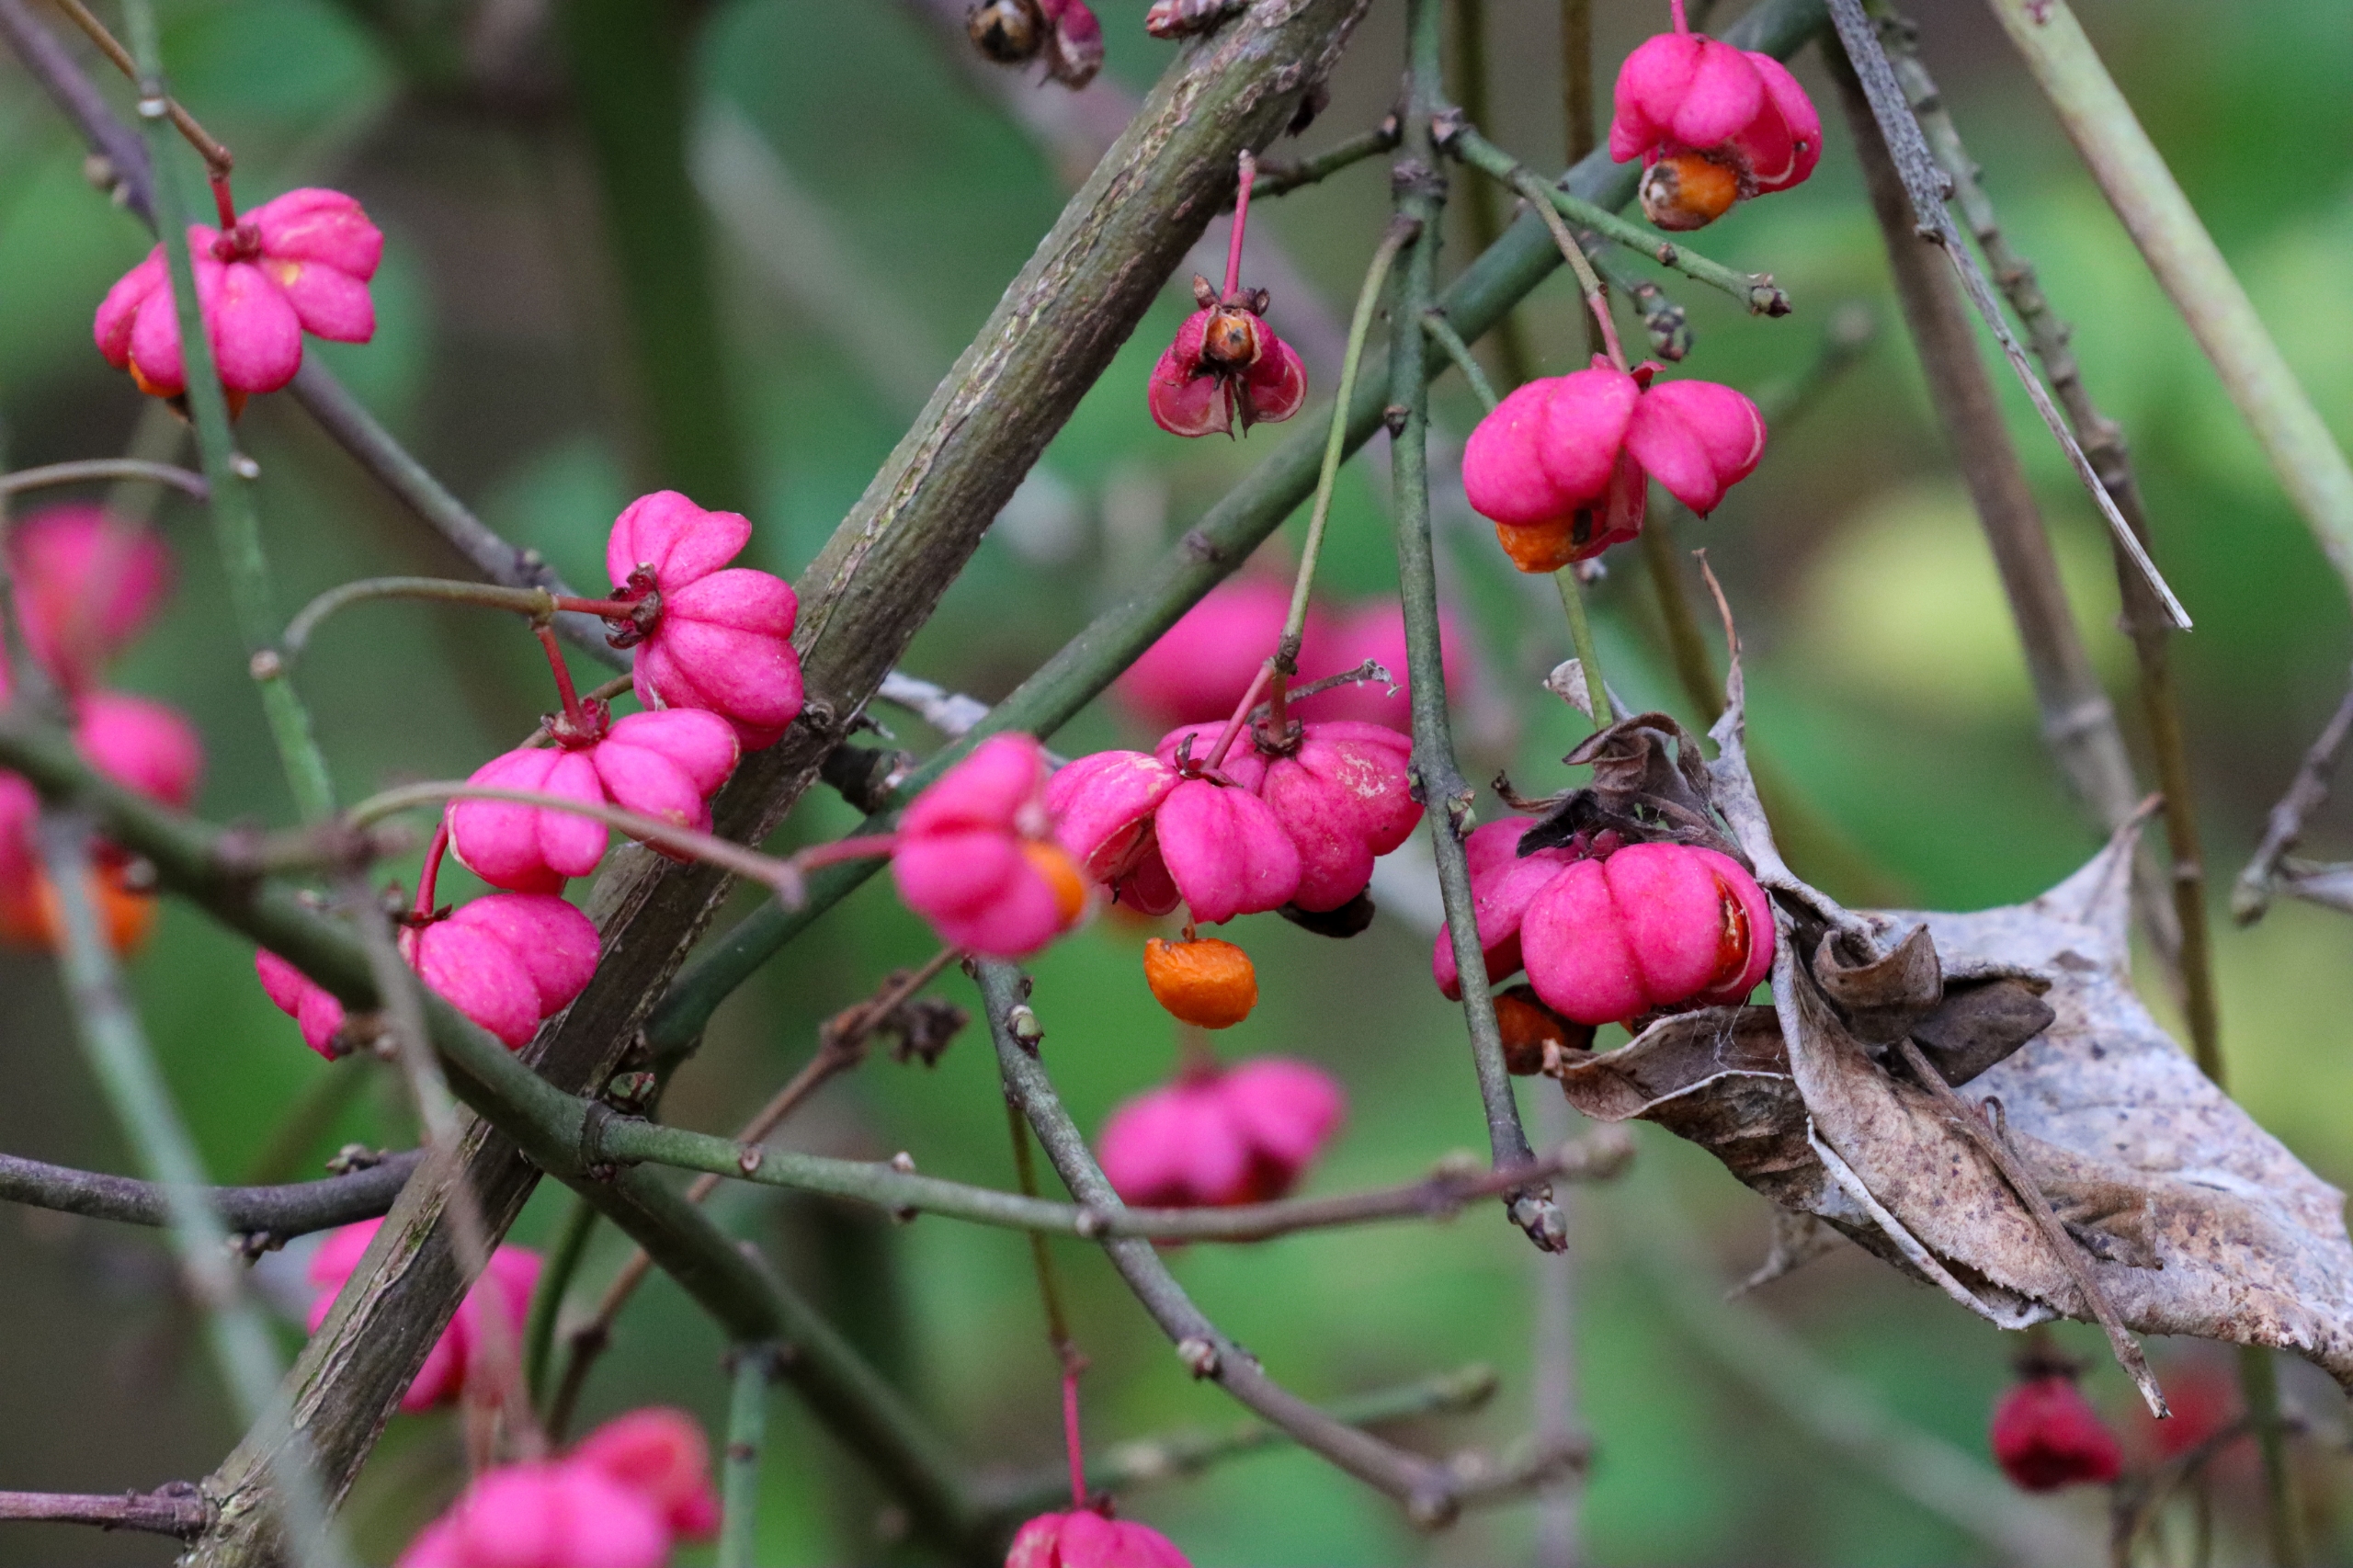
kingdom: Plantae
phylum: Tracheophyta
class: Magnoliopsida
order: Celastrales
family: Celastraceae
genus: Euonymus
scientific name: Euonymus europaeus
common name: Benved
